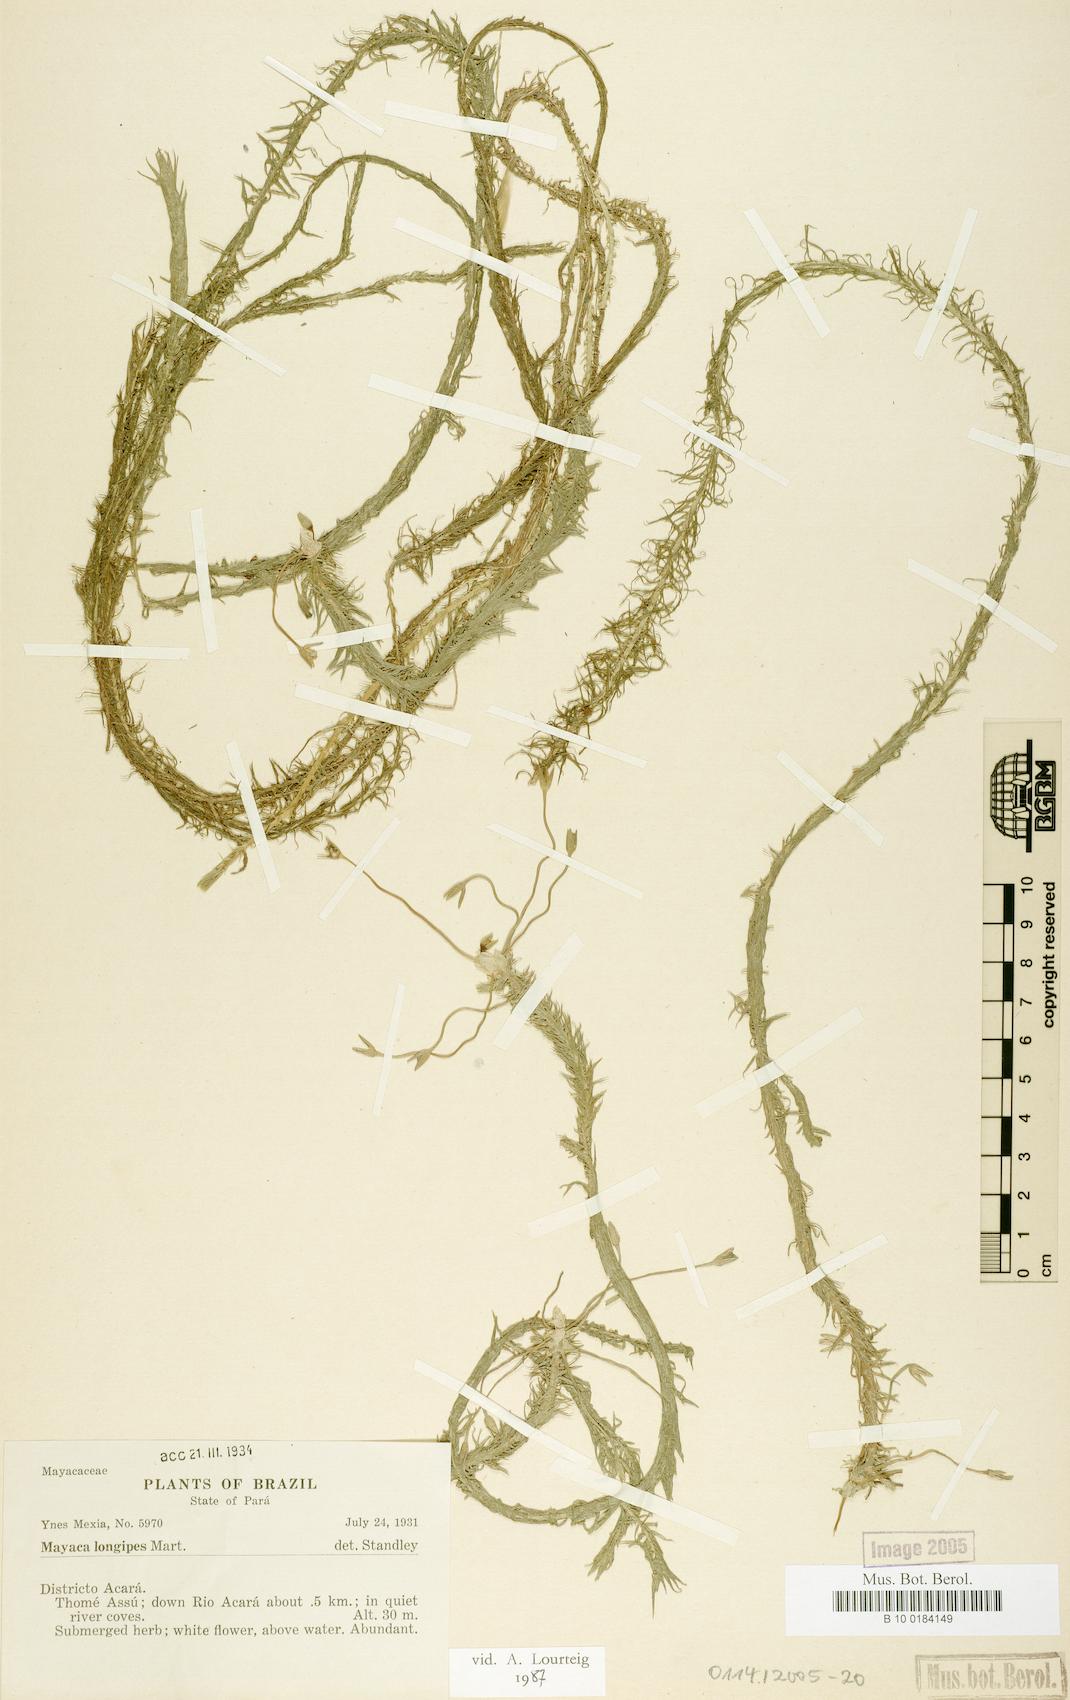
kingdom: Plantae
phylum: Tracheophyta
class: Liliopsida
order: Poales
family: Mayacaceae
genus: Mayaca
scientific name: Mayaca longipes
